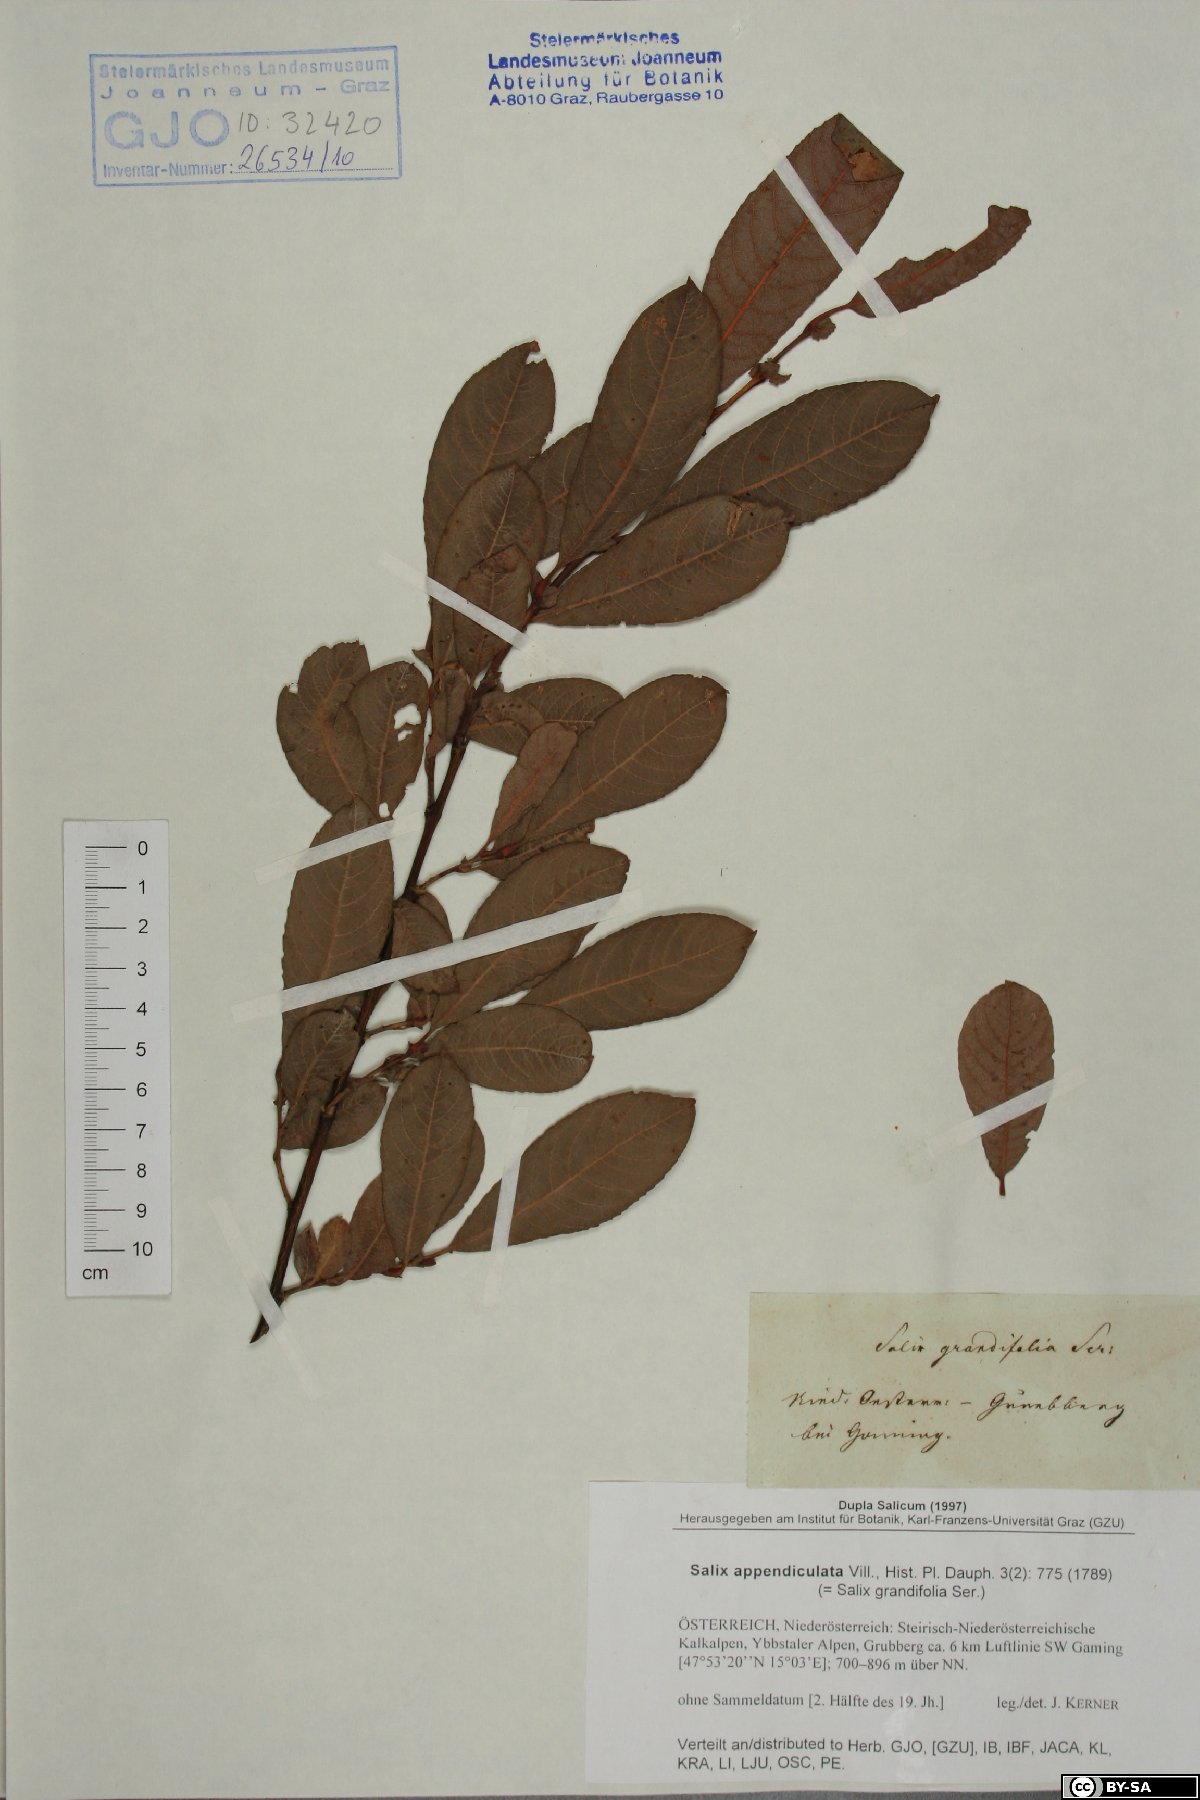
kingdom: Plantae
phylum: Tracheophyta
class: Magnoliopsida
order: Malpighiales
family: Salicaceae
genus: Salix
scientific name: Salix appendiculata
